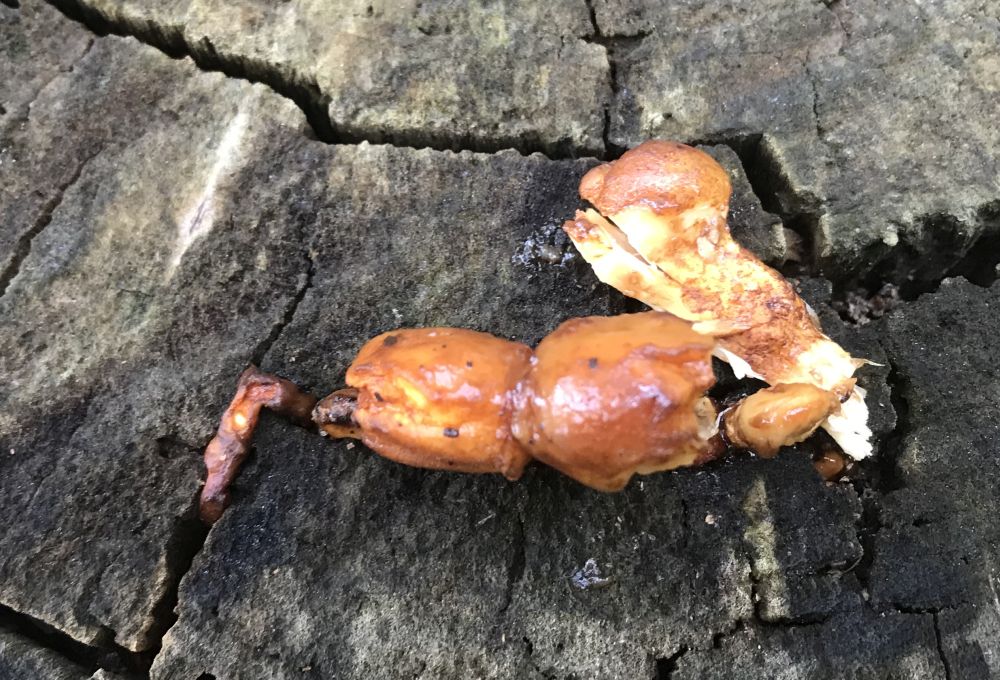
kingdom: Fungi
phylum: Basidiomycota
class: Agaricomycetes
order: Agaricales
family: Strophariaceae
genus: Pholiota
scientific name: Pholiota limonella
